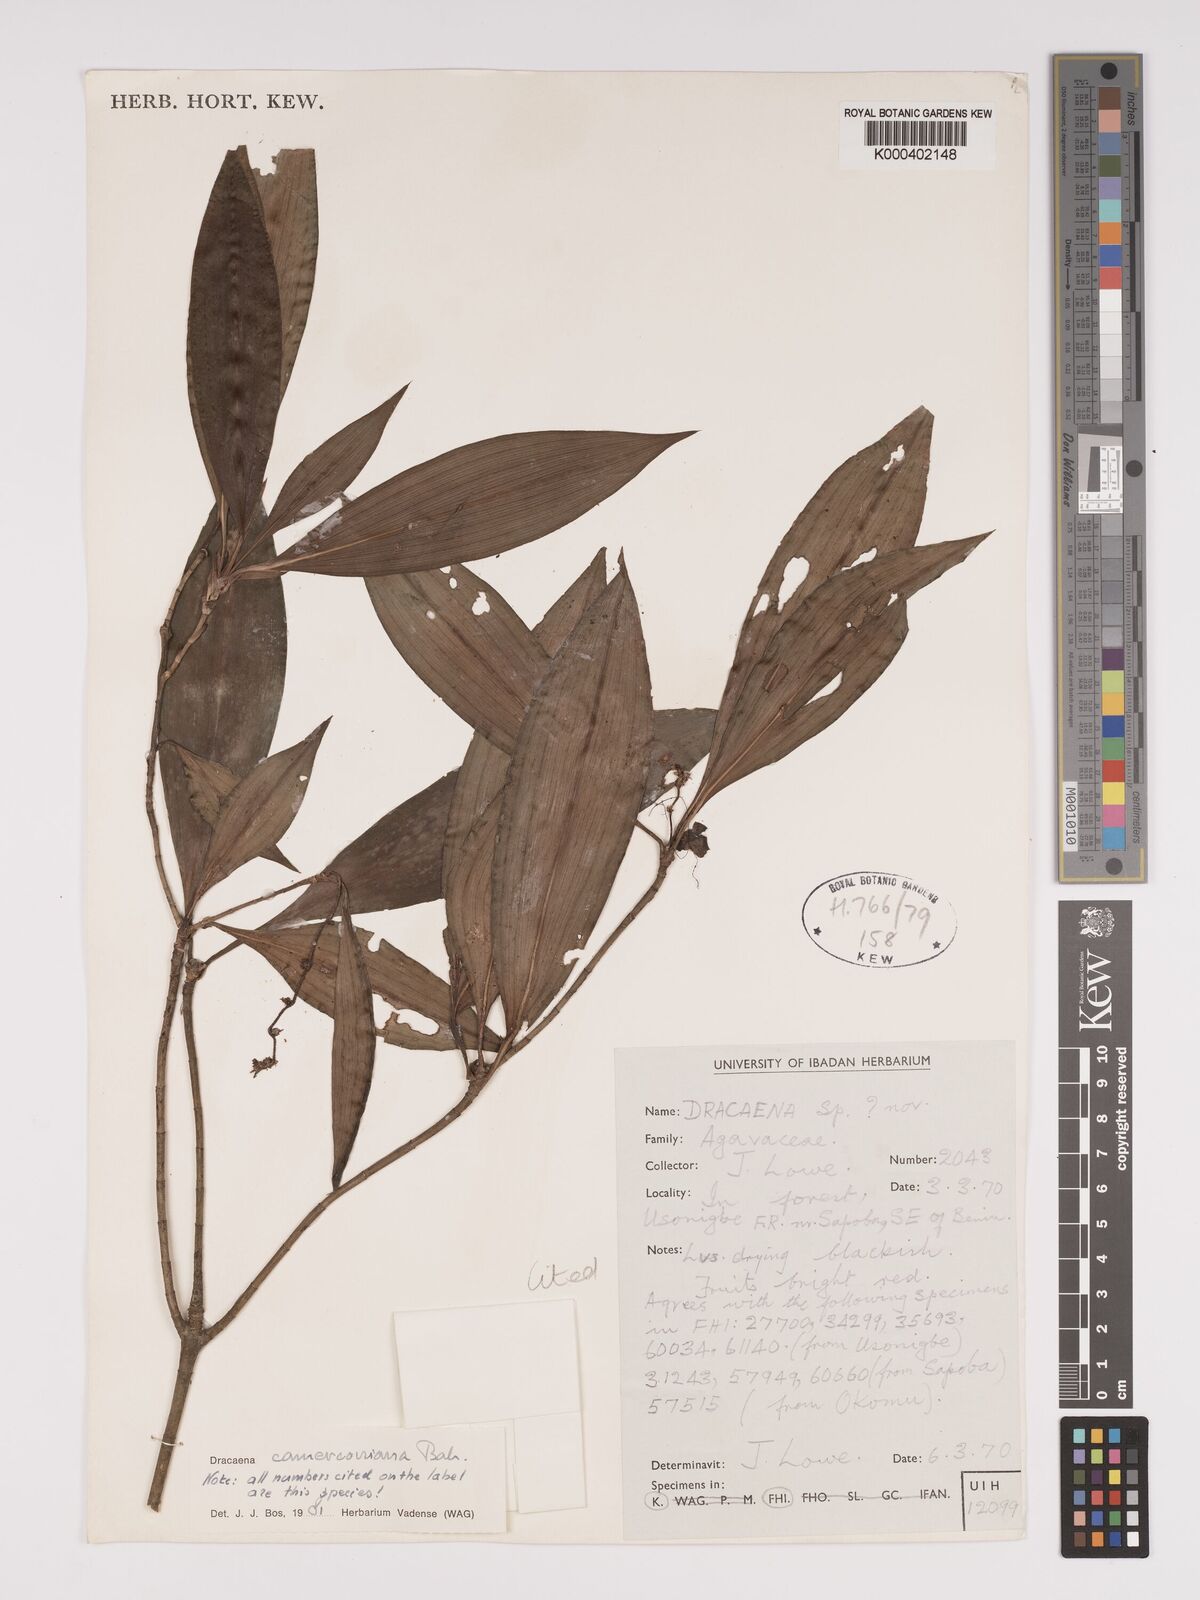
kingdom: Plantae
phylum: Tracheophyta
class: Liliopsida
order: Asparagales
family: Asparagaceae
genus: Dracaena
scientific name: Dracaena camerooniana
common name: Dragon tree
